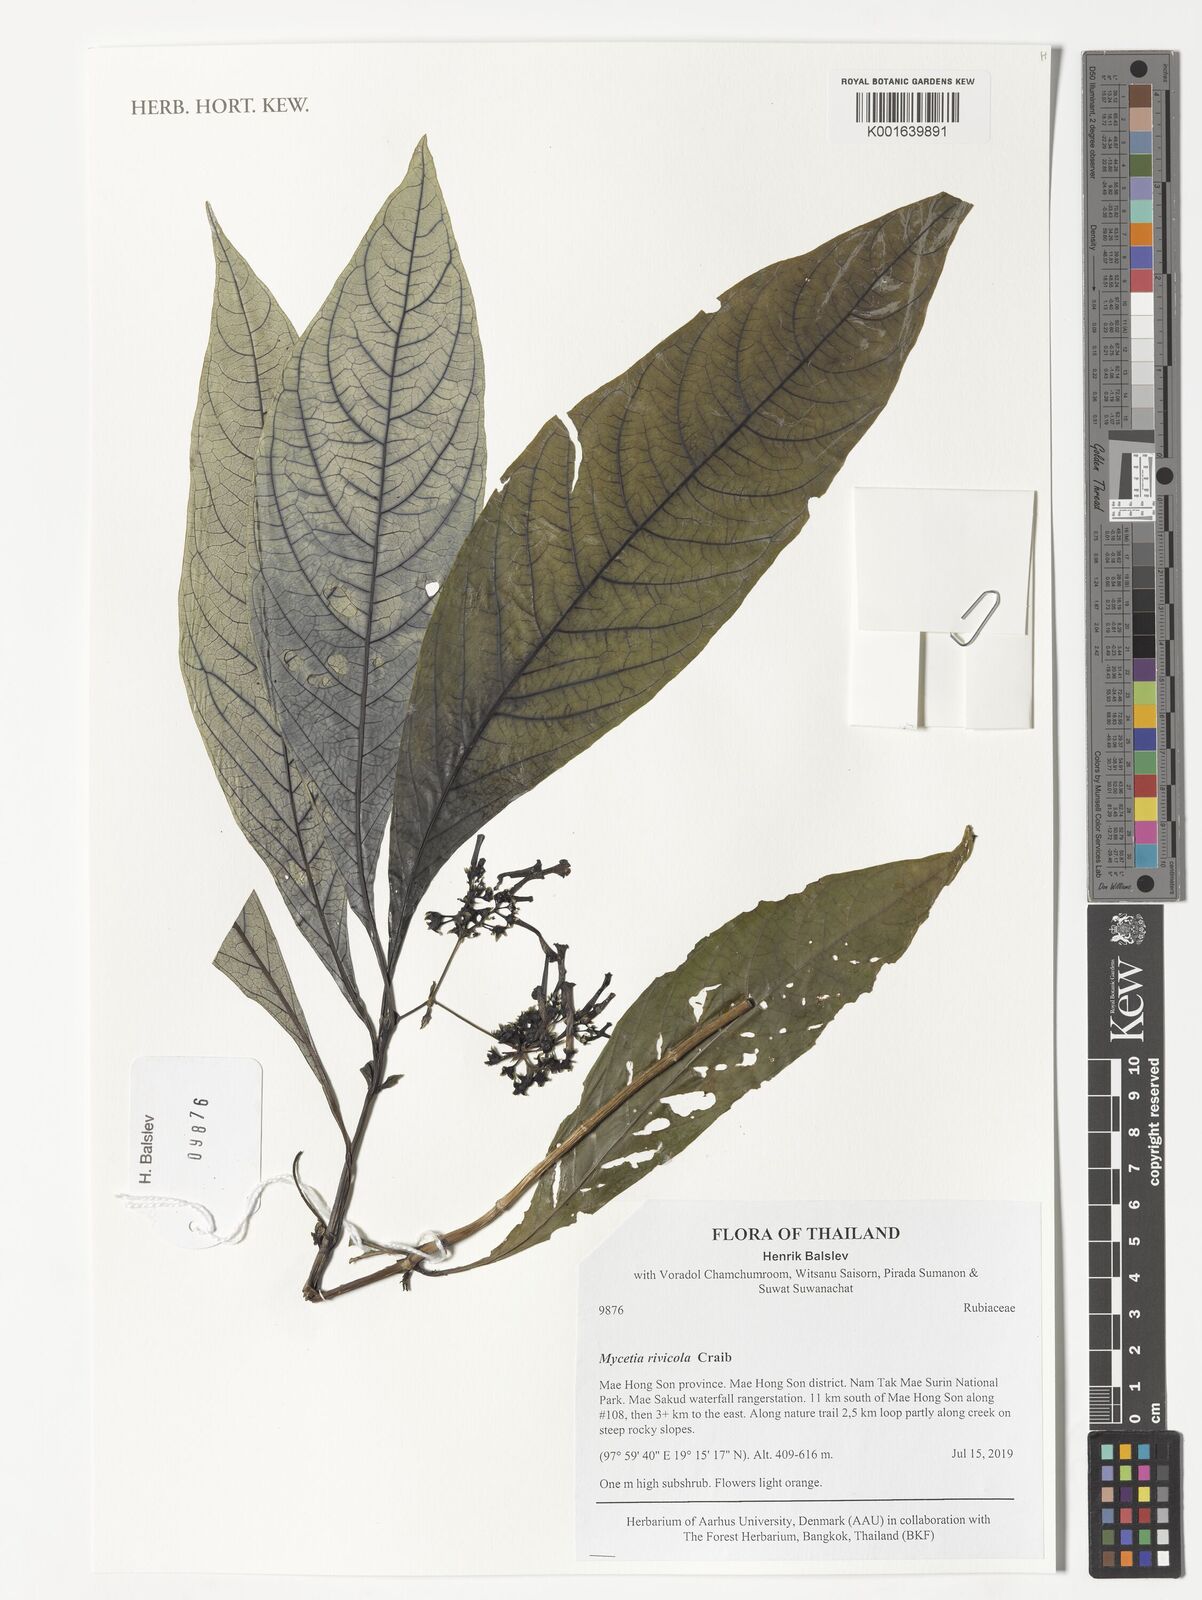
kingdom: Plantae
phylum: Tracheophyta
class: Magnoliopsida
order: Gentianales
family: Rubiaceae
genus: Mycetia
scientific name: Mycetia rivicola
